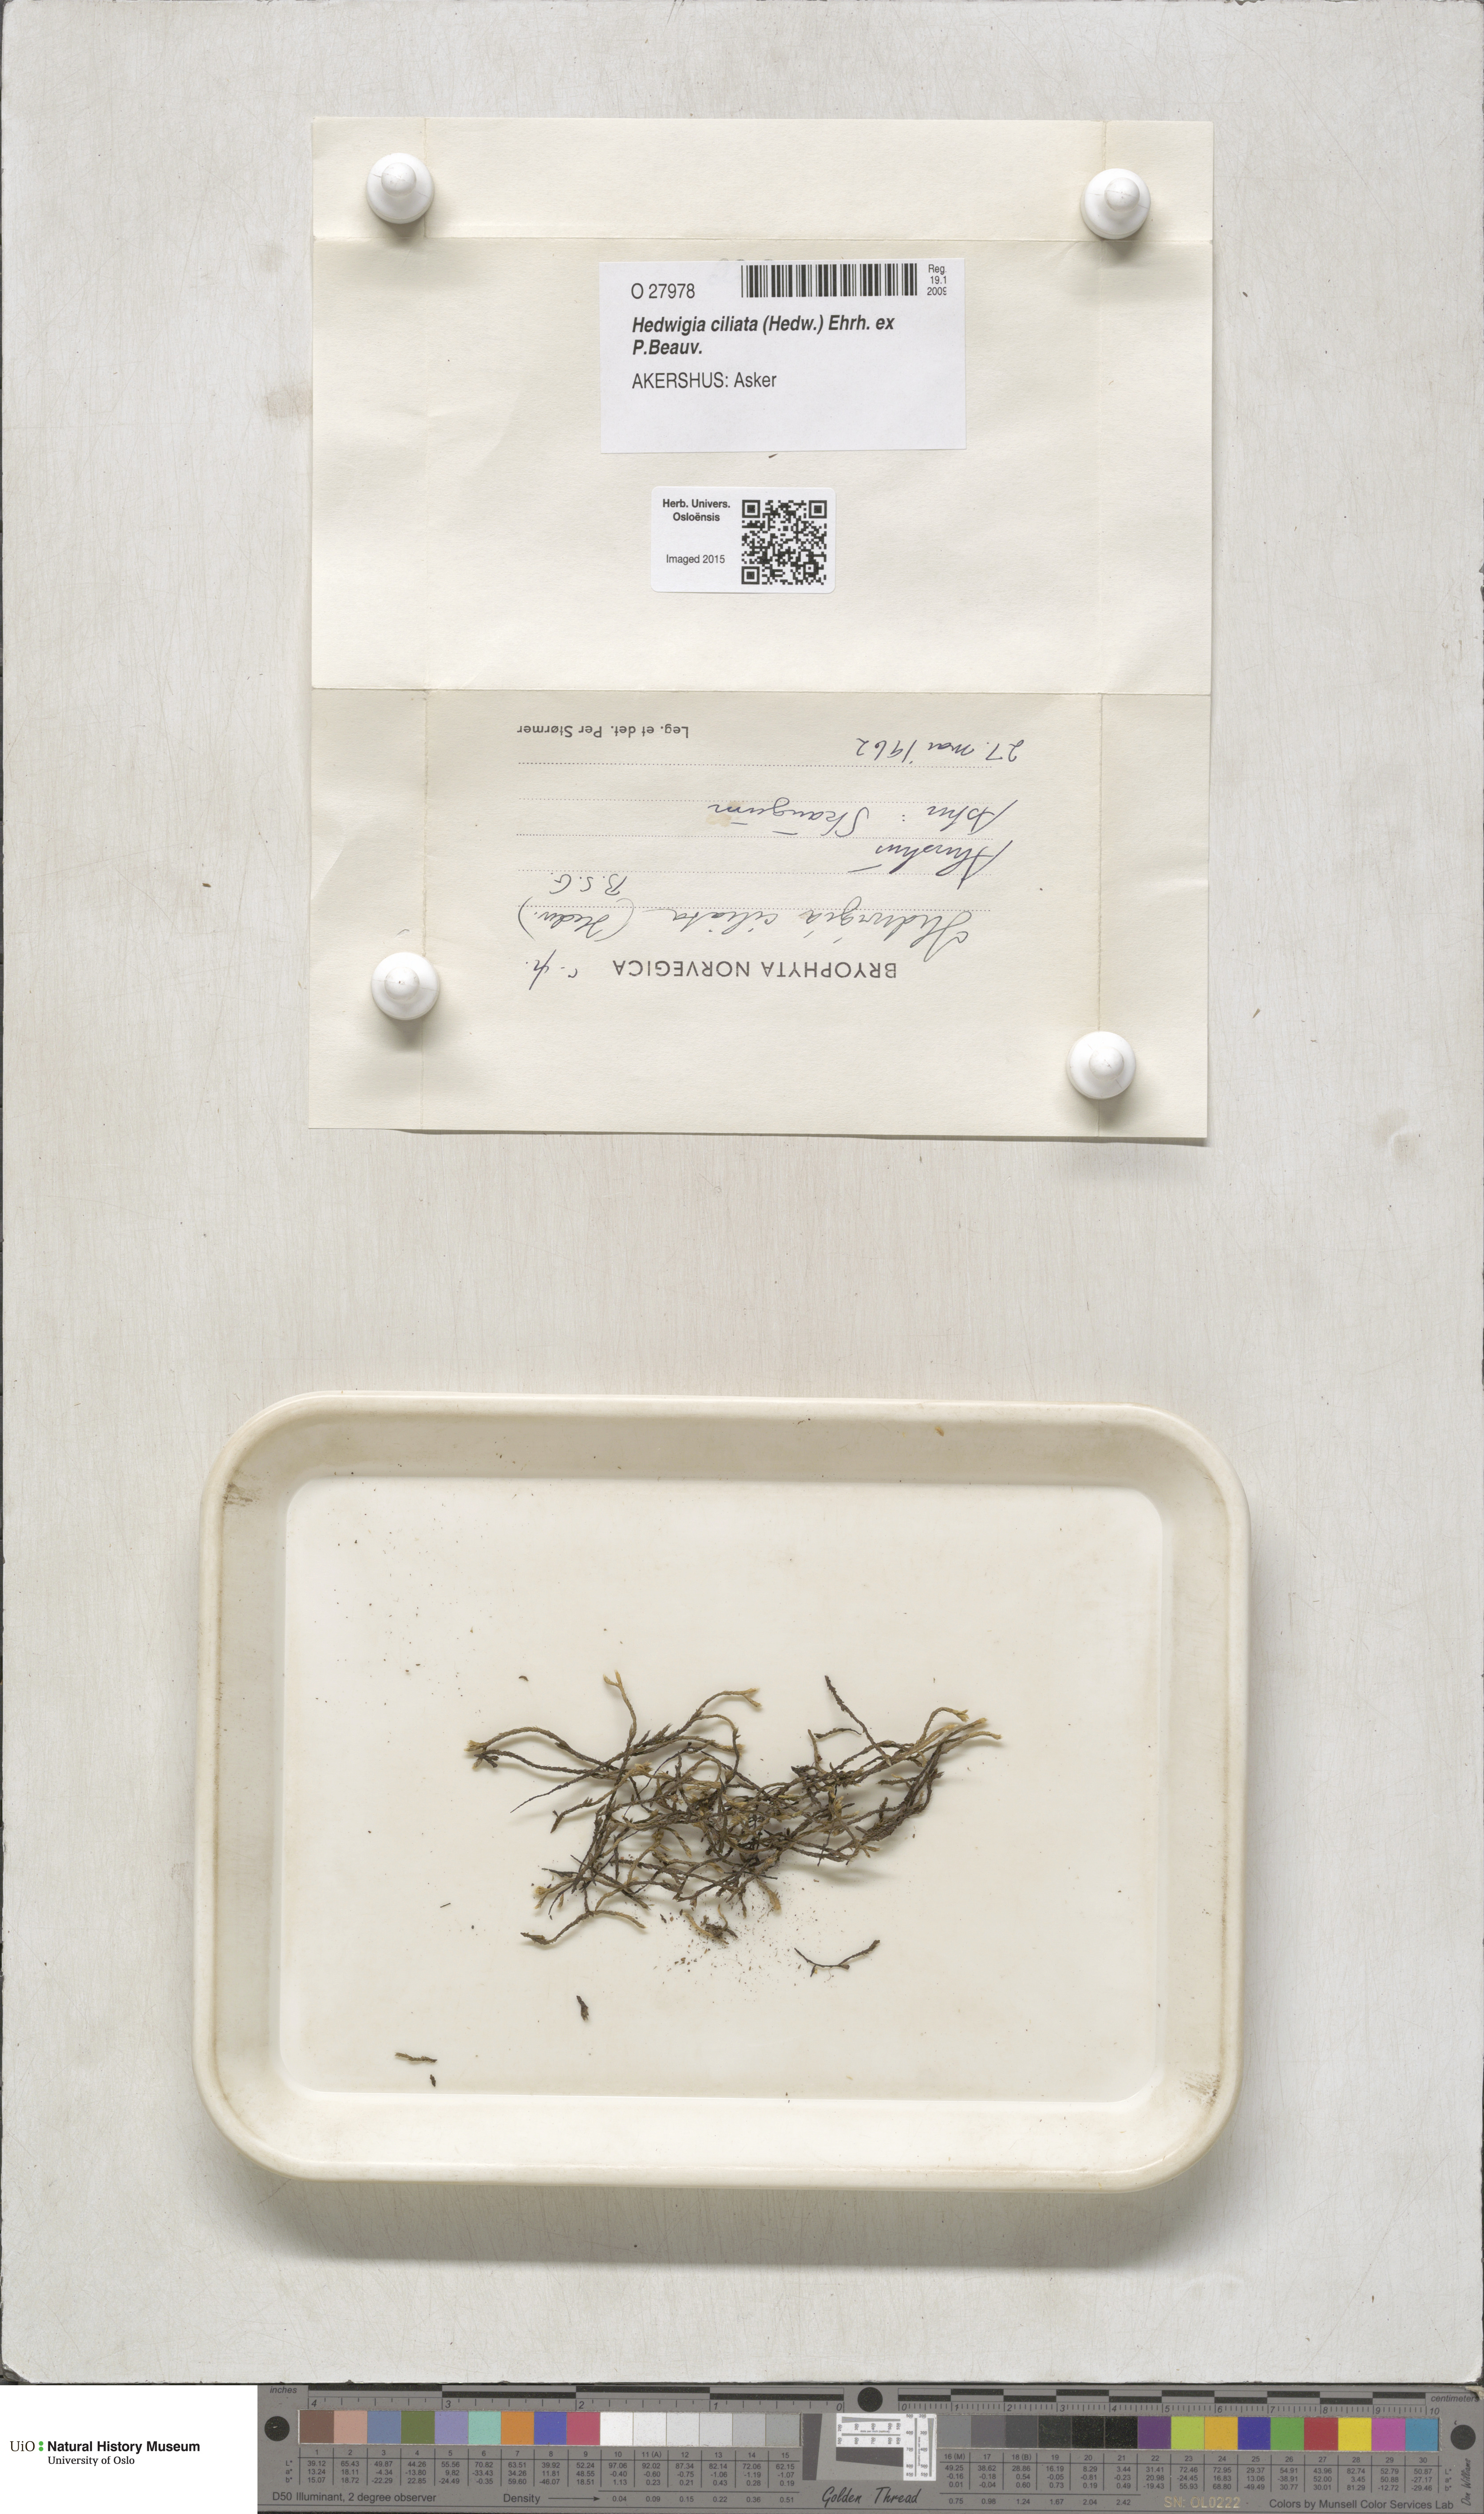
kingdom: Plantae
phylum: Bryophyta
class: Bryopsida
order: Hedwigiales
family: Hedwigiaceae
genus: Hedwigia
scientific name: Hedwigia ciliata
